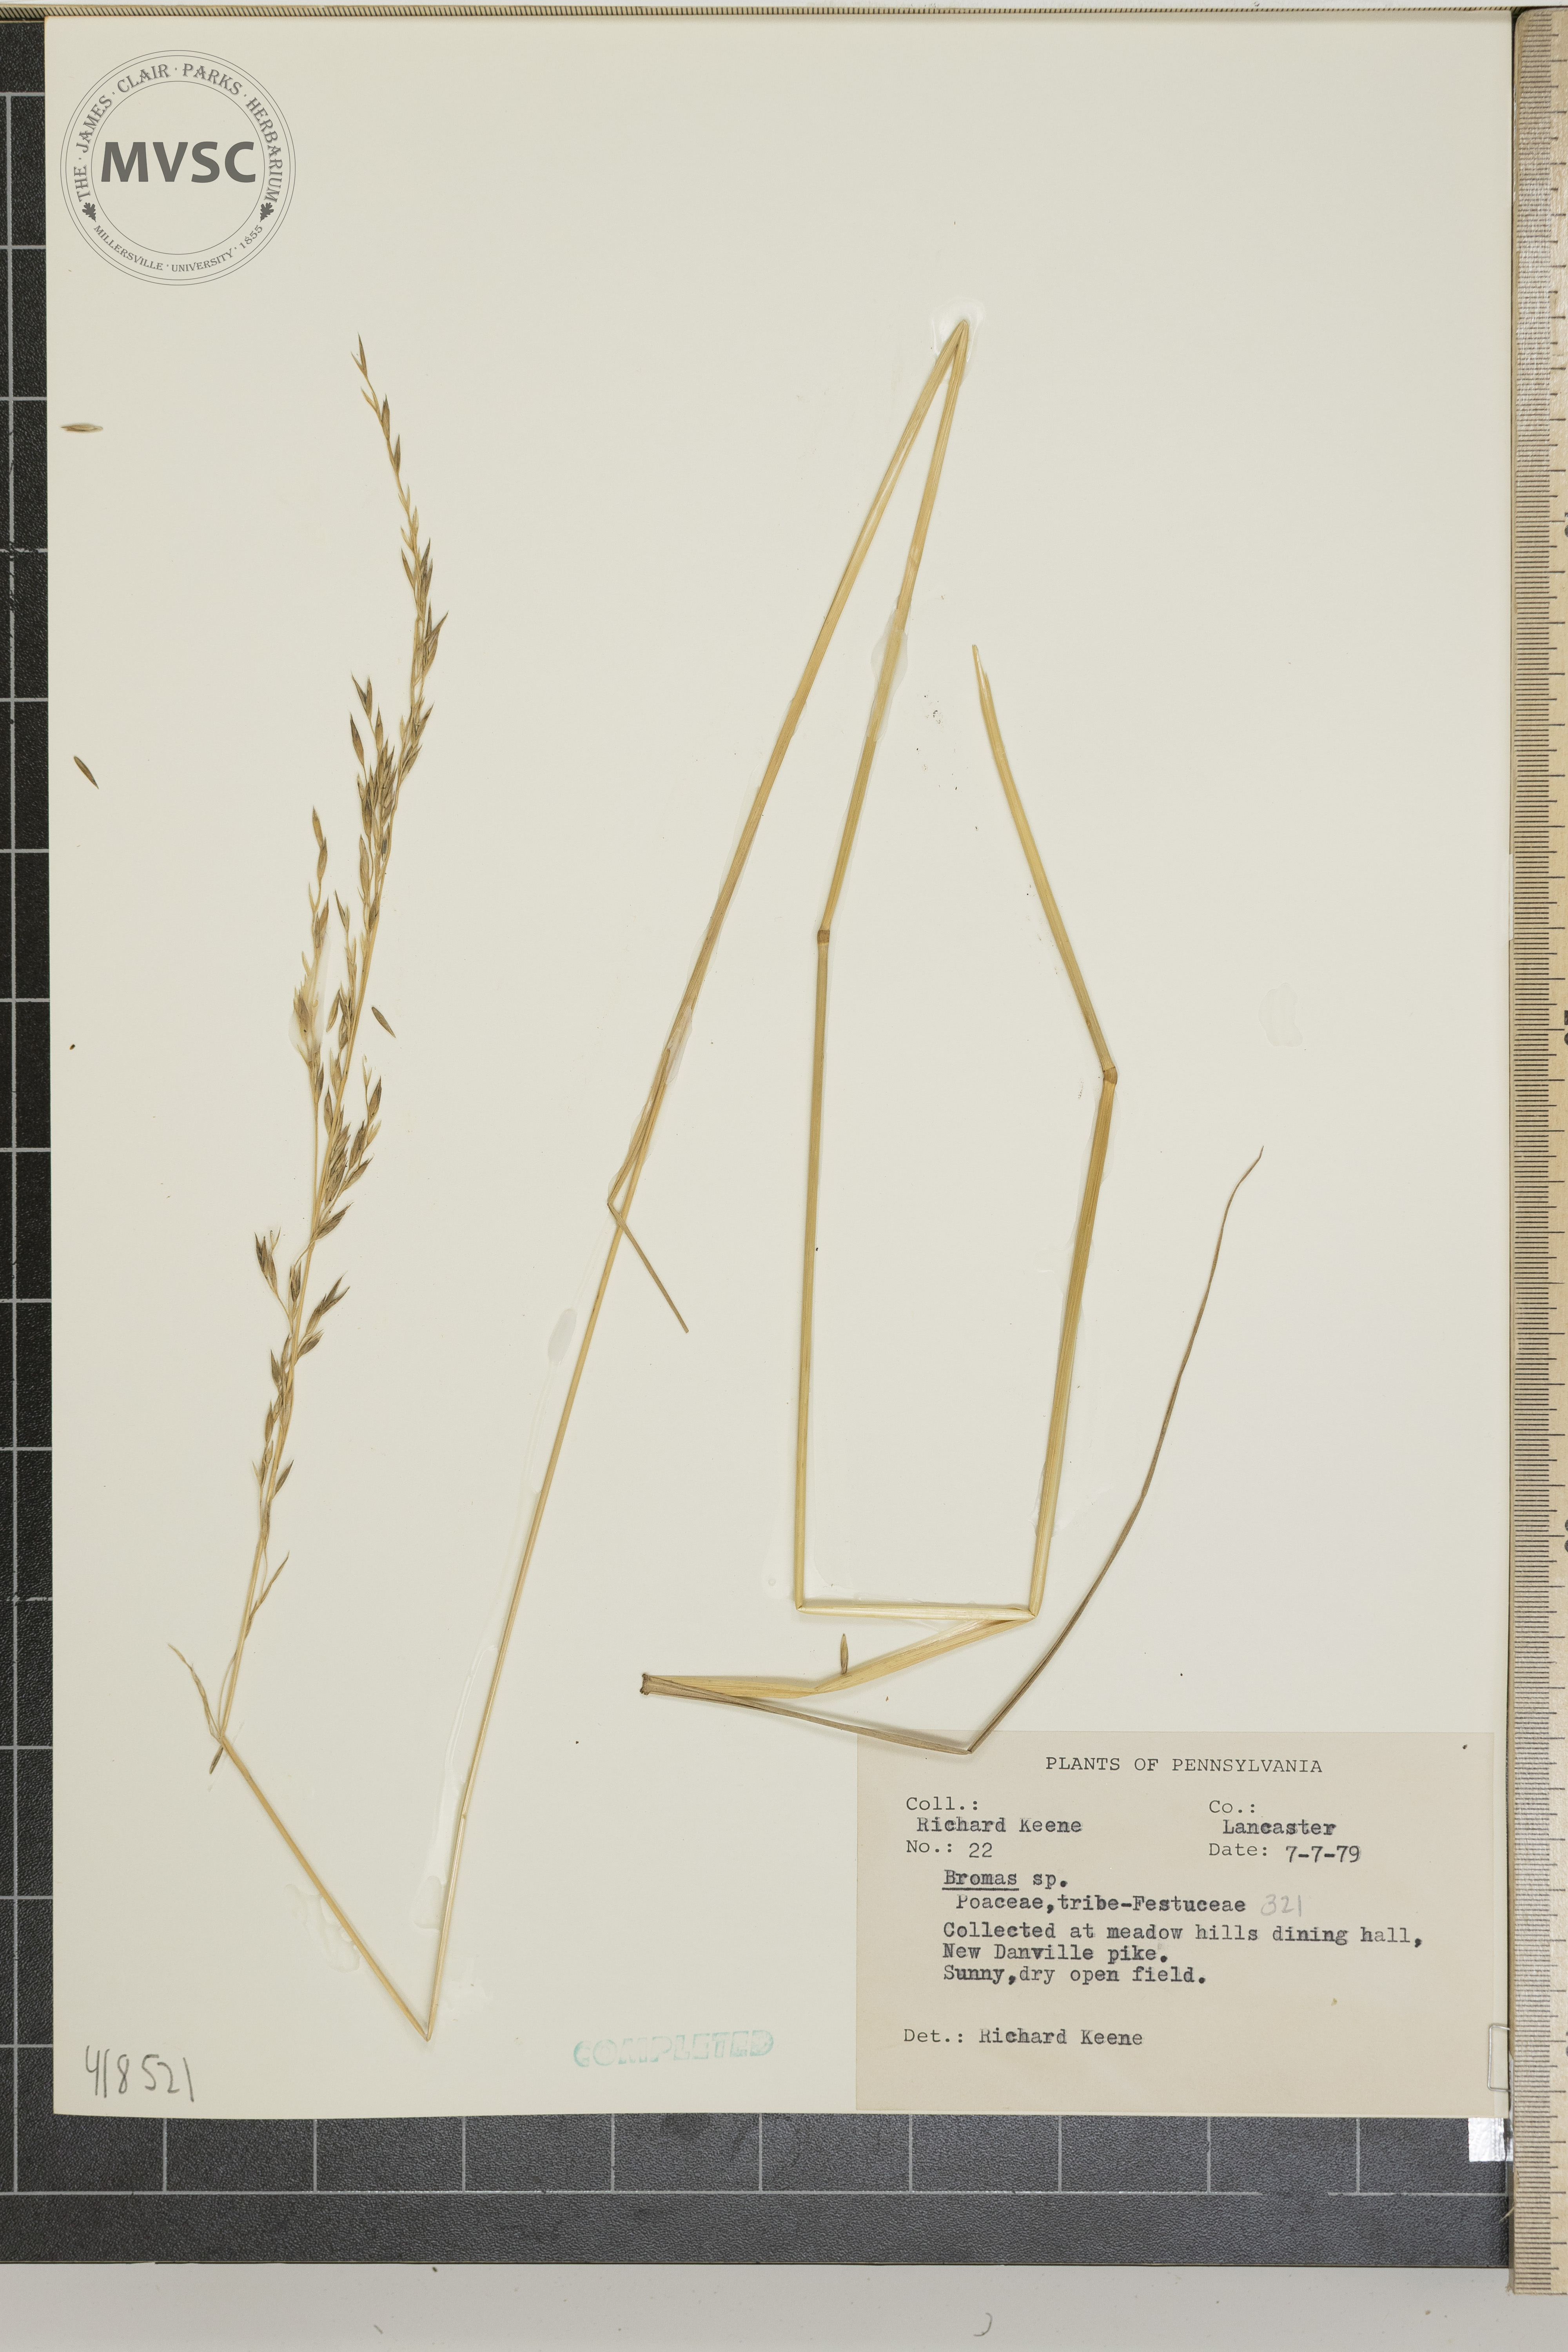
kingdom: Plantae
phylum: Tracheophyta
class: Liliopsida
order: Poales
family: Poaceae
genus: Bromus
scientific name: Bromus
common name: Brome
